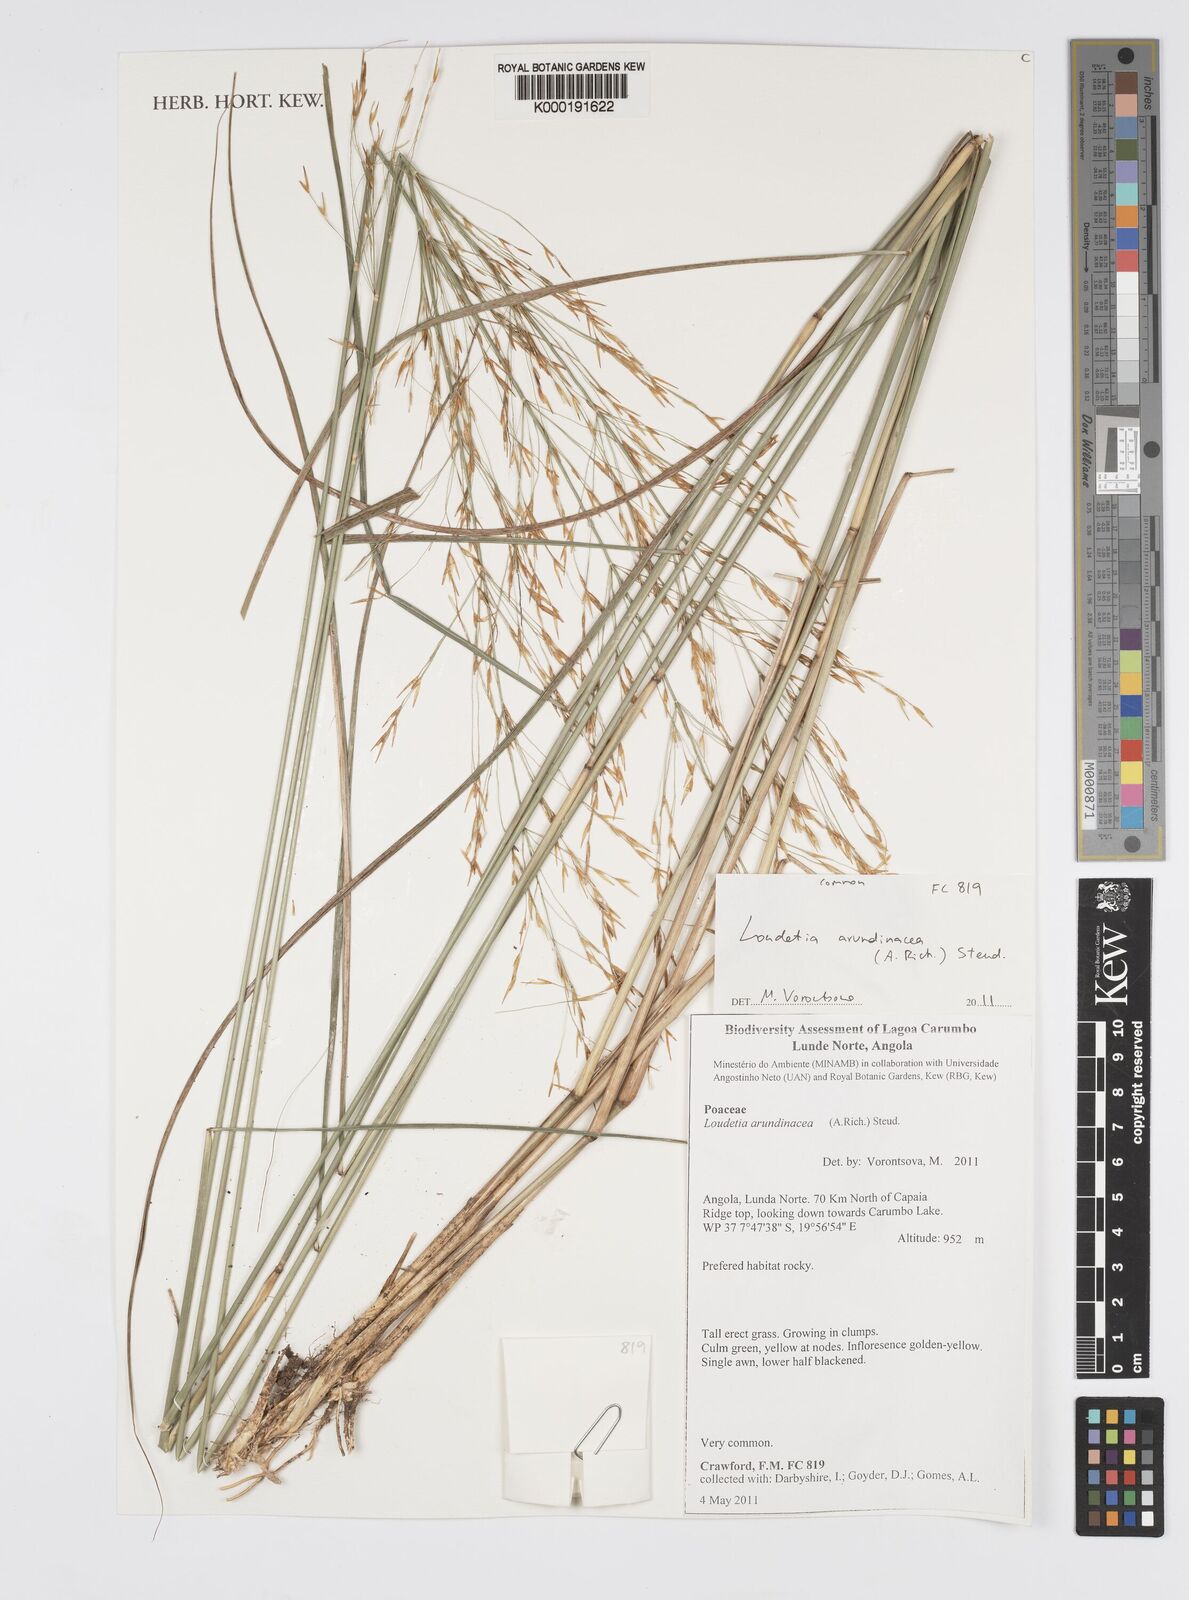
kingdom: Plantae
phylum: Tracheophyta
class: Liliopsida
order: Poales
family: Poaceae
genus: Loudetia
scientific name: Loudetia arundinacea
